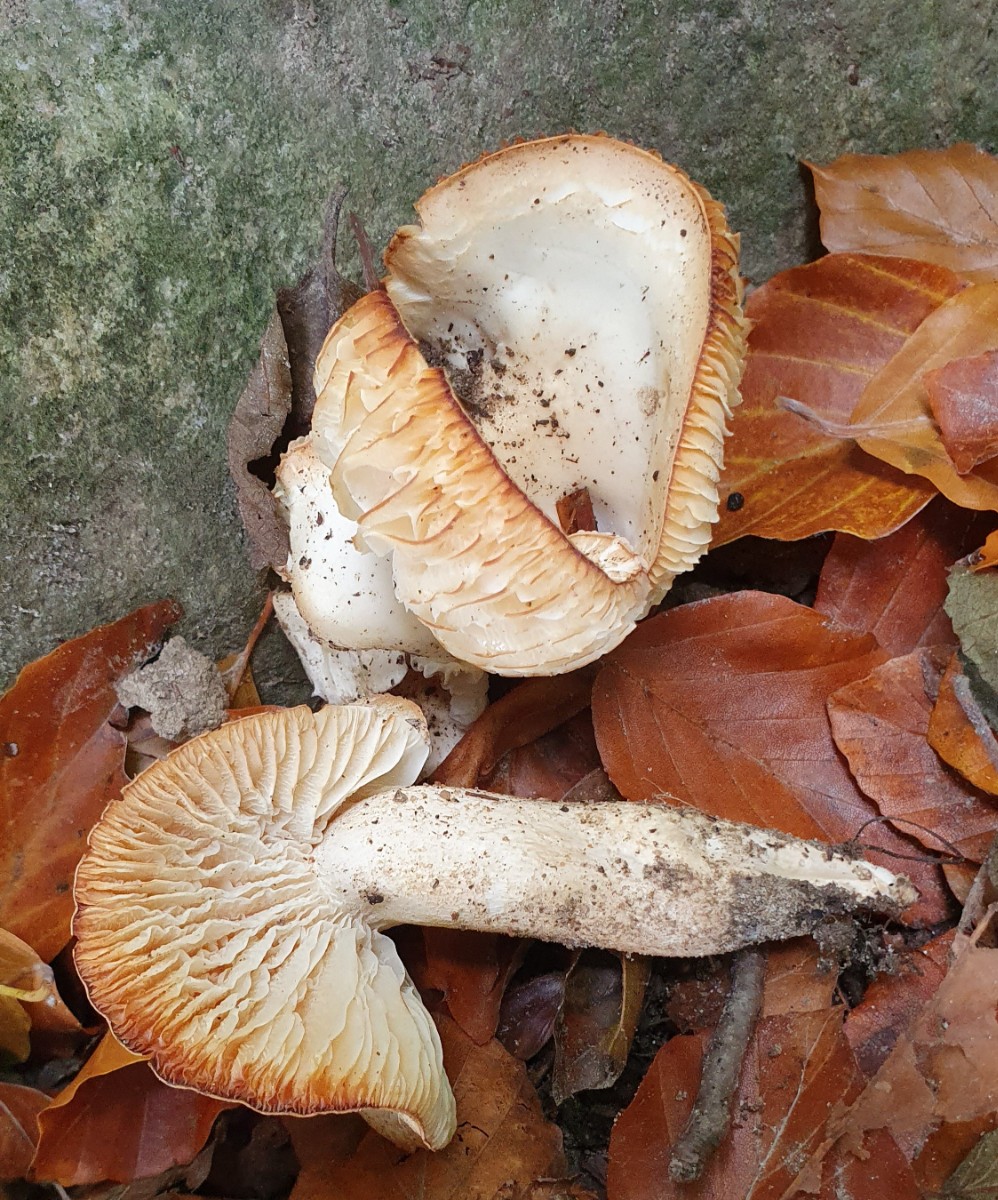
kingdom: Fungi
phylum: Basidiomycota
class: Agaricomycetes
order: Agaricales
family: Hygrophoraceae
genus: Hygrophorus
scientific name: Hygrophorus discoxanthus
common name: ildelugtende sneglehat
